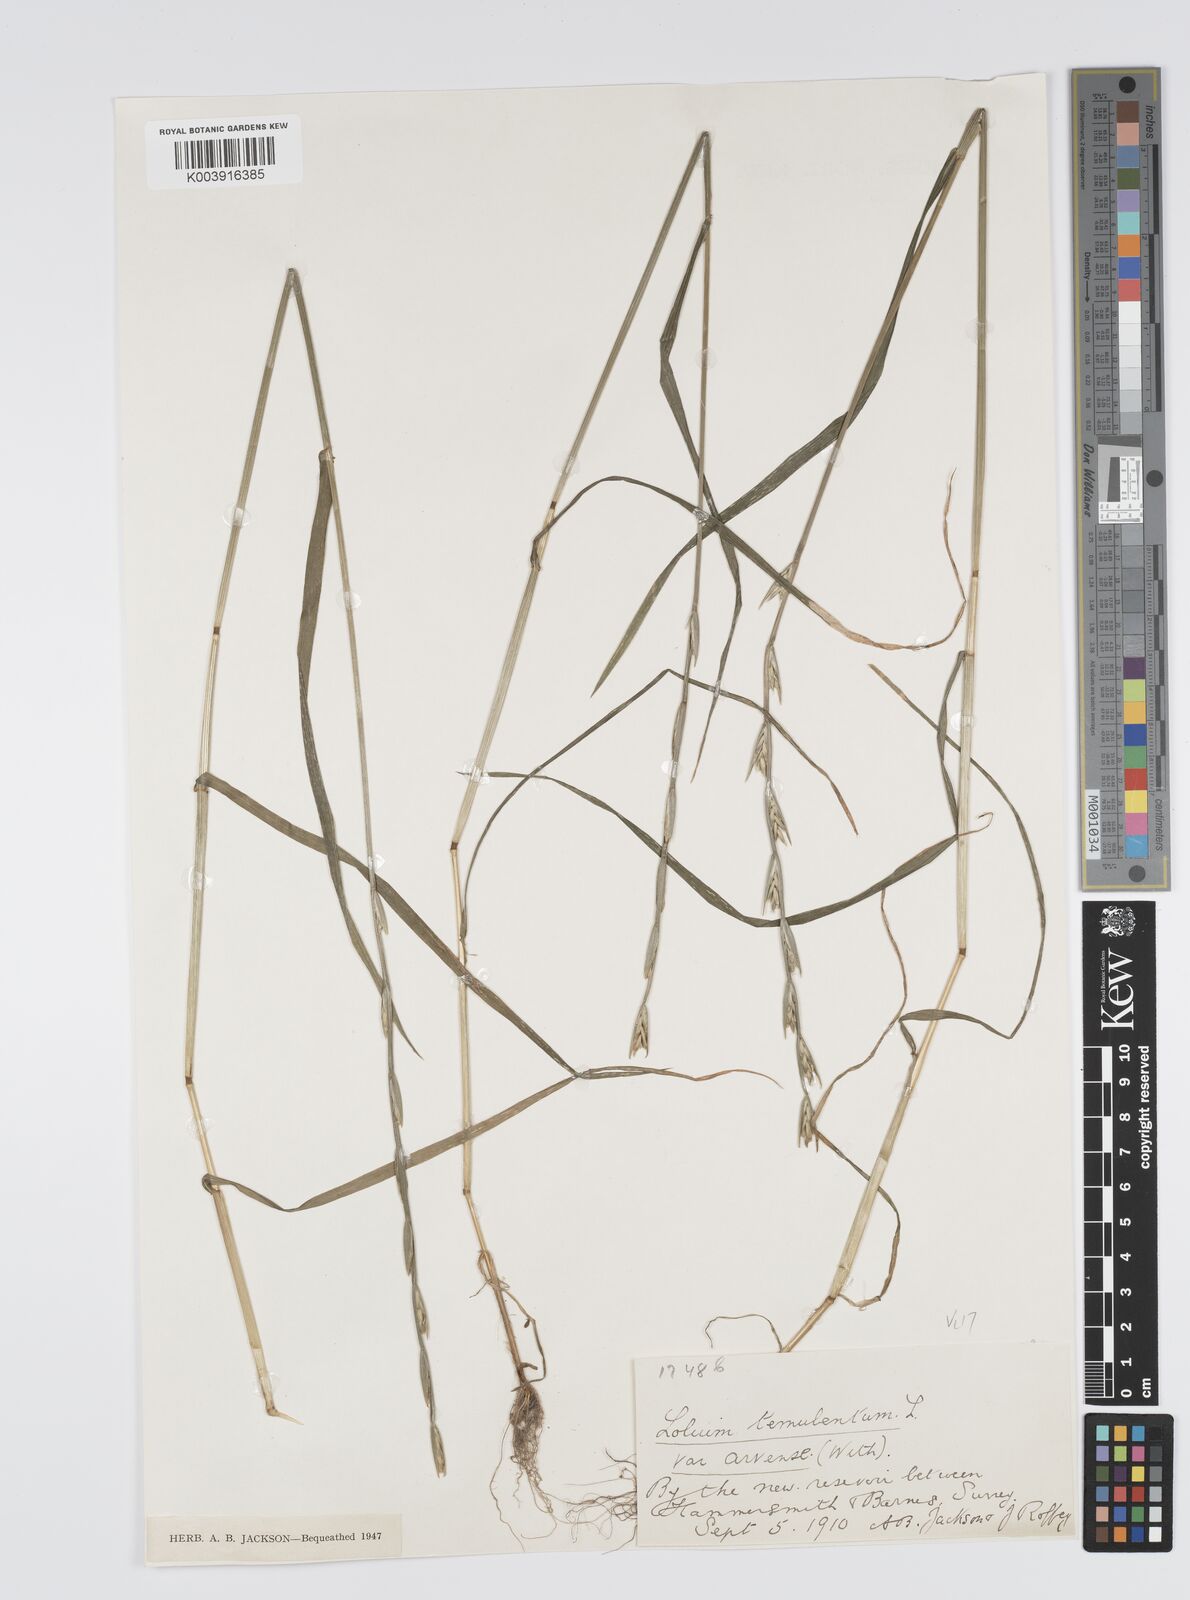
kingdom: Plantae
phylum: Tracheophyta
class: Liliopsida
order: Poales
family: Poaceae
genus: Lolium
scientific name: Lolium temulentum
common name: Darnel
